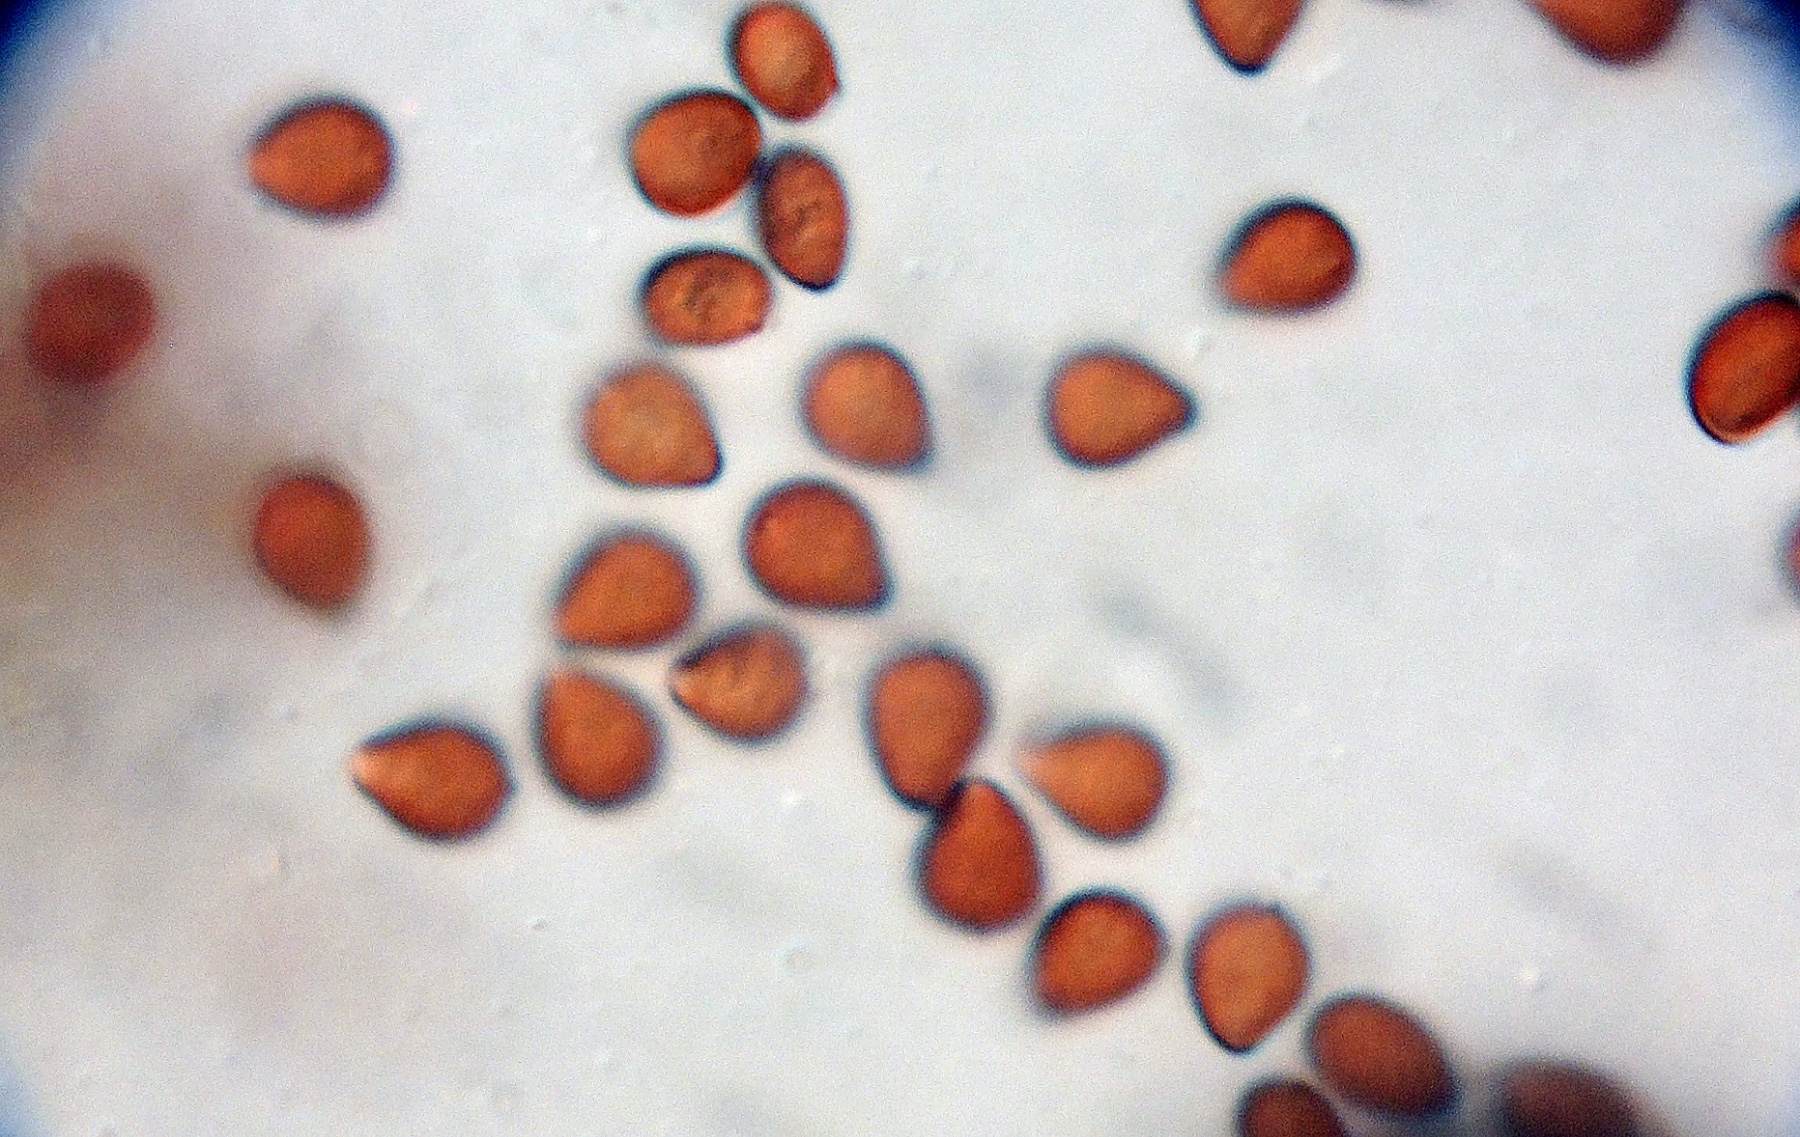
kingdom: Fungi
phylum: Basidiomycota
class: Agaricomycetes
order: Agaricales
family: Psathyrellaceae
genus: Narcissea
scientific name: Narcissea cardiaspora
